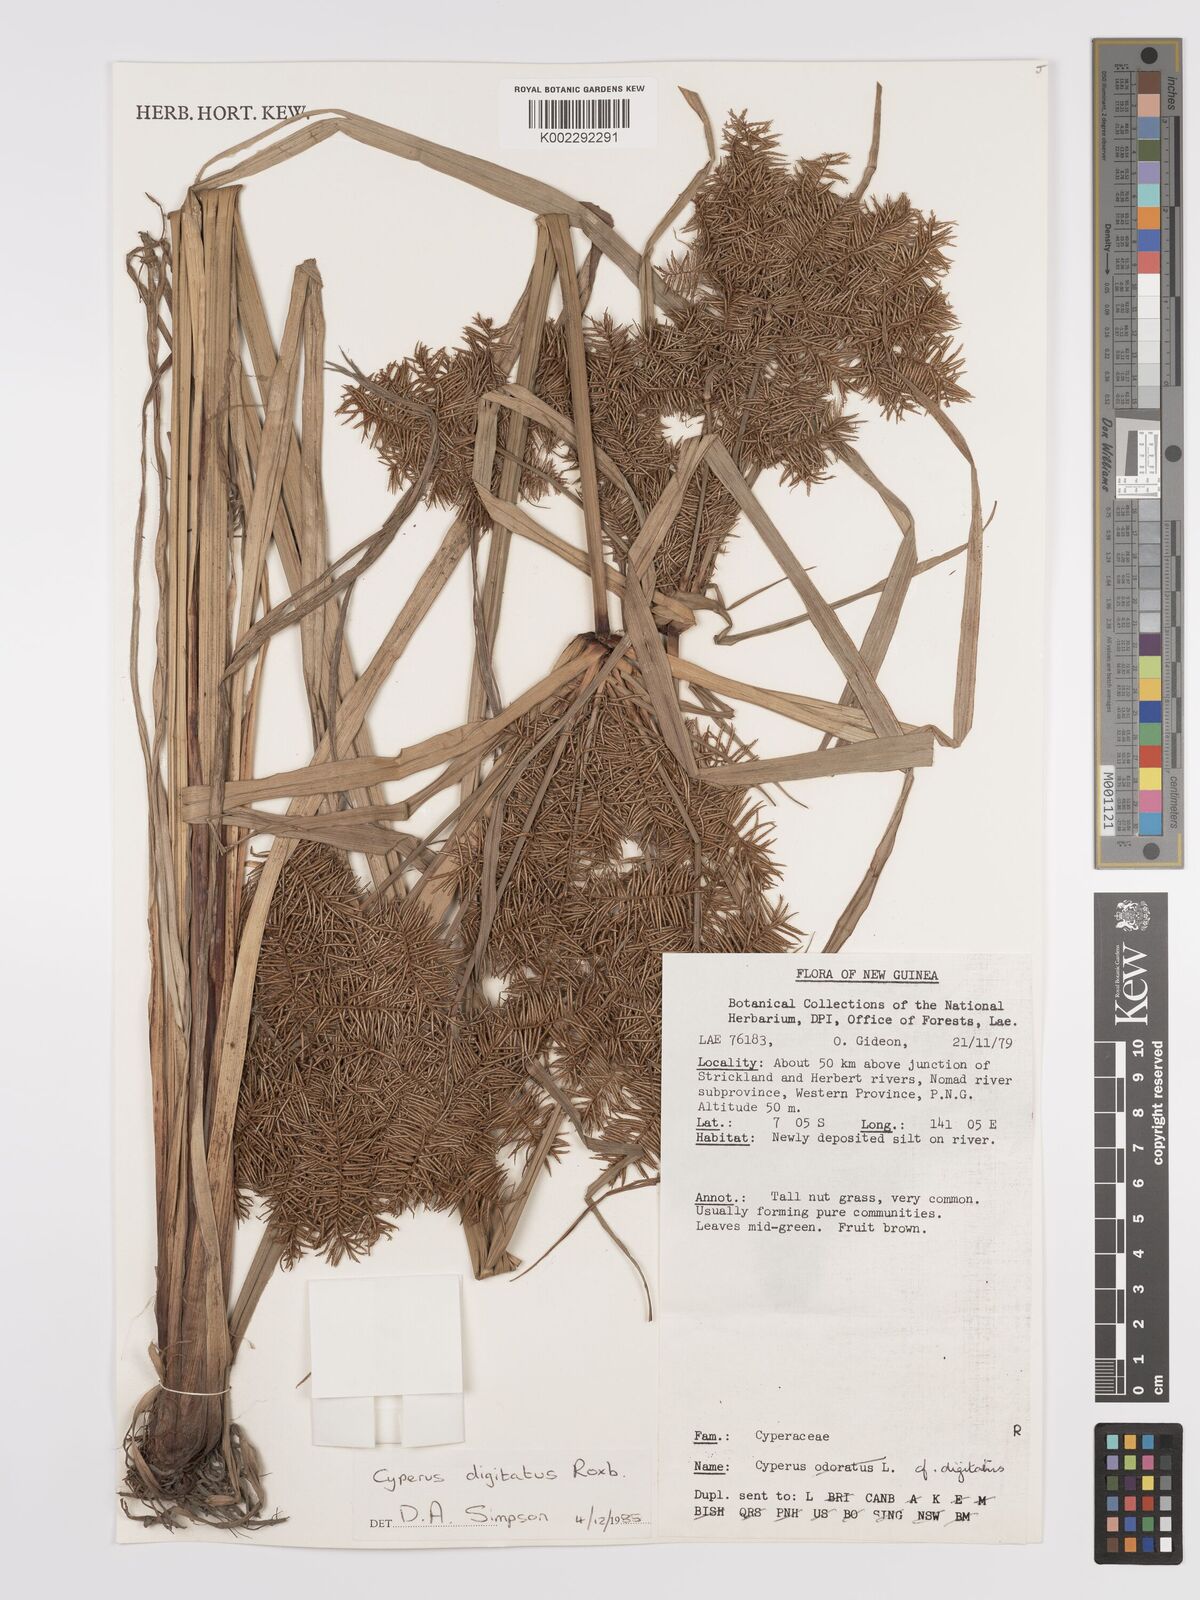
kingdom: Plantae
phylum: Tracheophyta
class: Liliopsida
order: Poales
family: Cyperaceae
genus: Cyperus
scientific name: Cyperus digitatus
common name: Finger flatsedge
